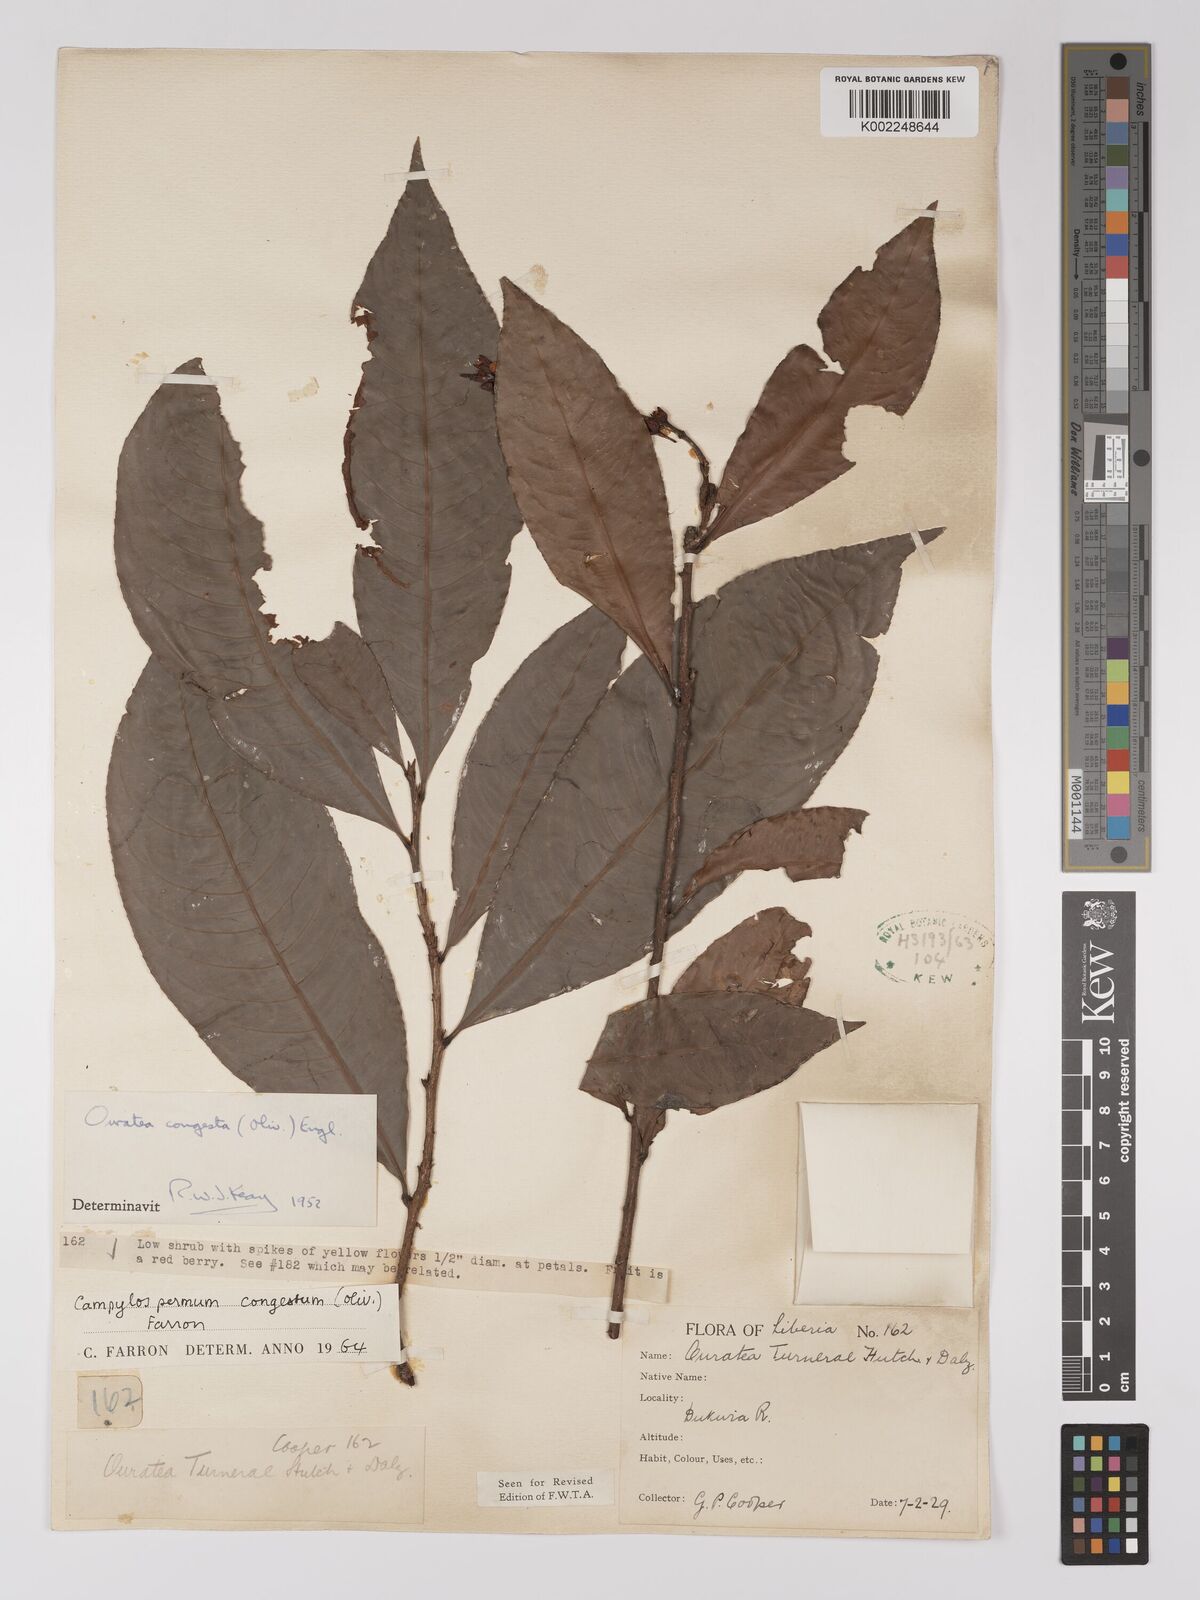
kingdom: Plantae
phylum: Tracheophyta
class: Magnoliopsida
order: Malpighiales
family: Ochnaceae
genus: Campylospermum
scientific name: Campylospermum congestum
